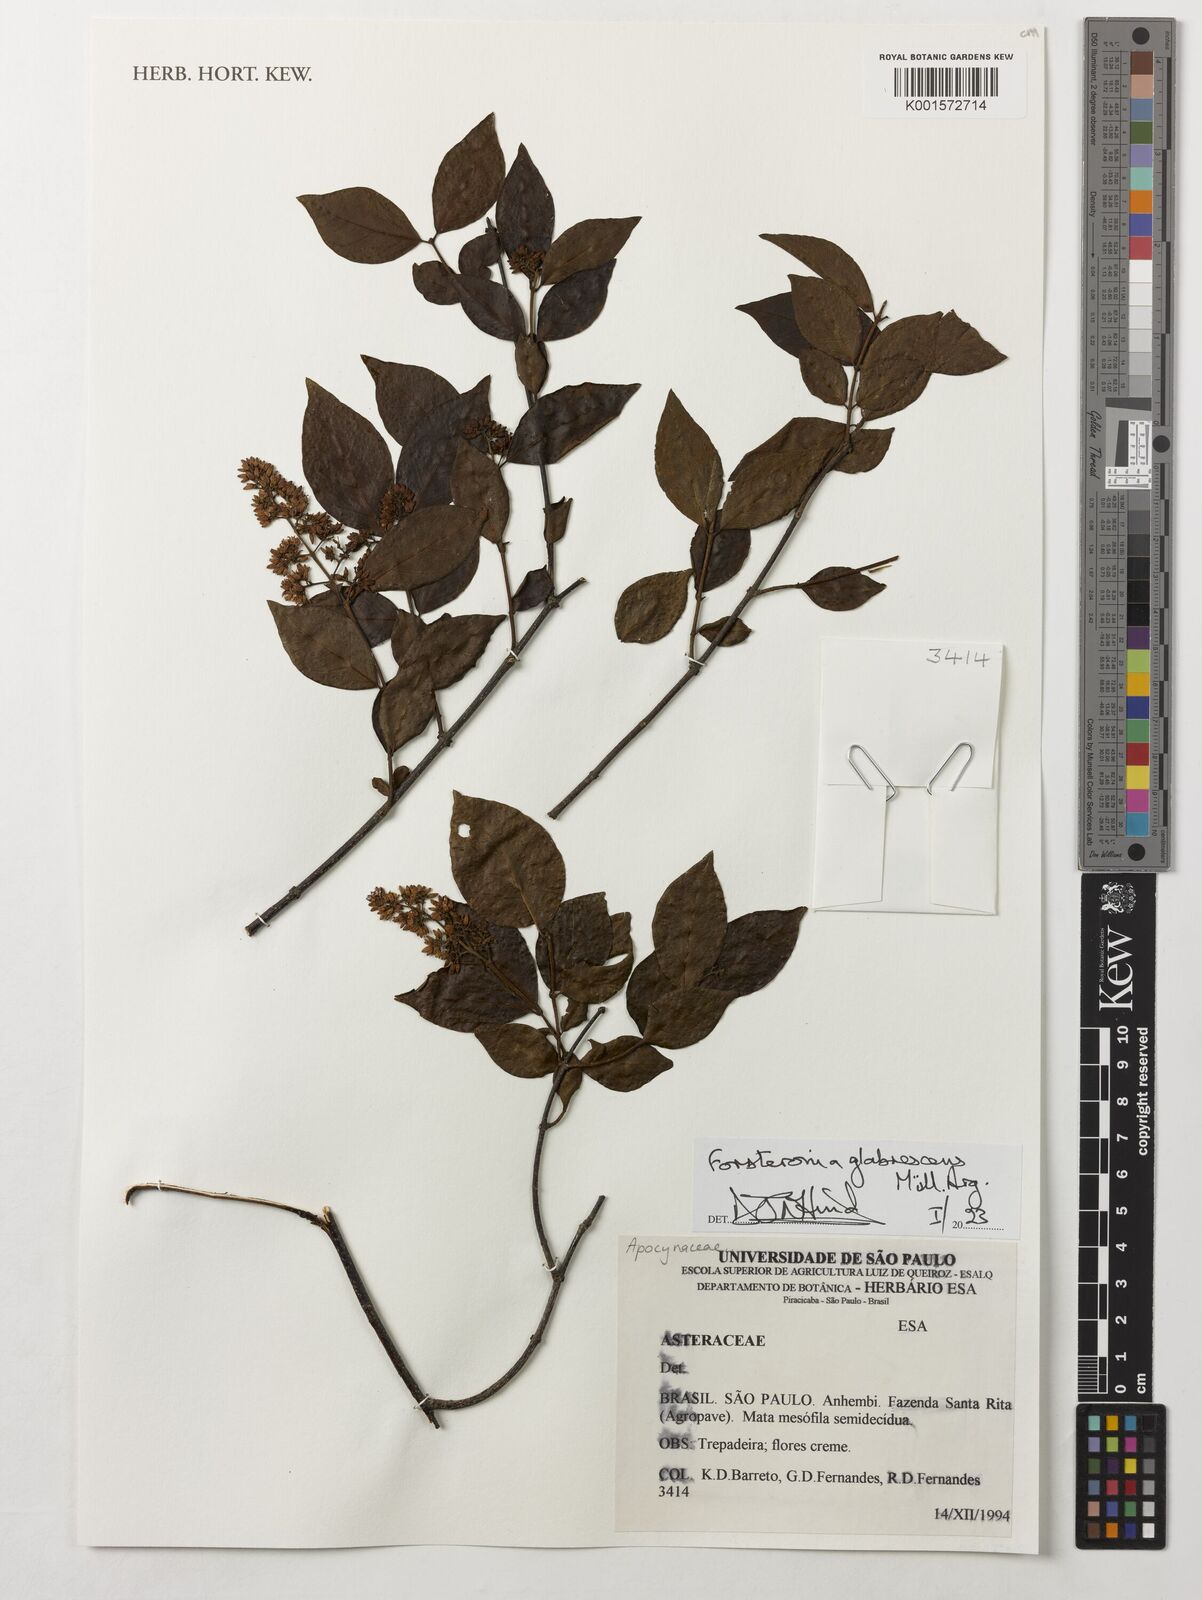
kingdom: Plantae
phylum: Tracheophyta
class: Magnoliopsida
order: Gentianales
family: Apocynaceae
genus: Forsteronia
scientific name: Forsteronia glabrescens
